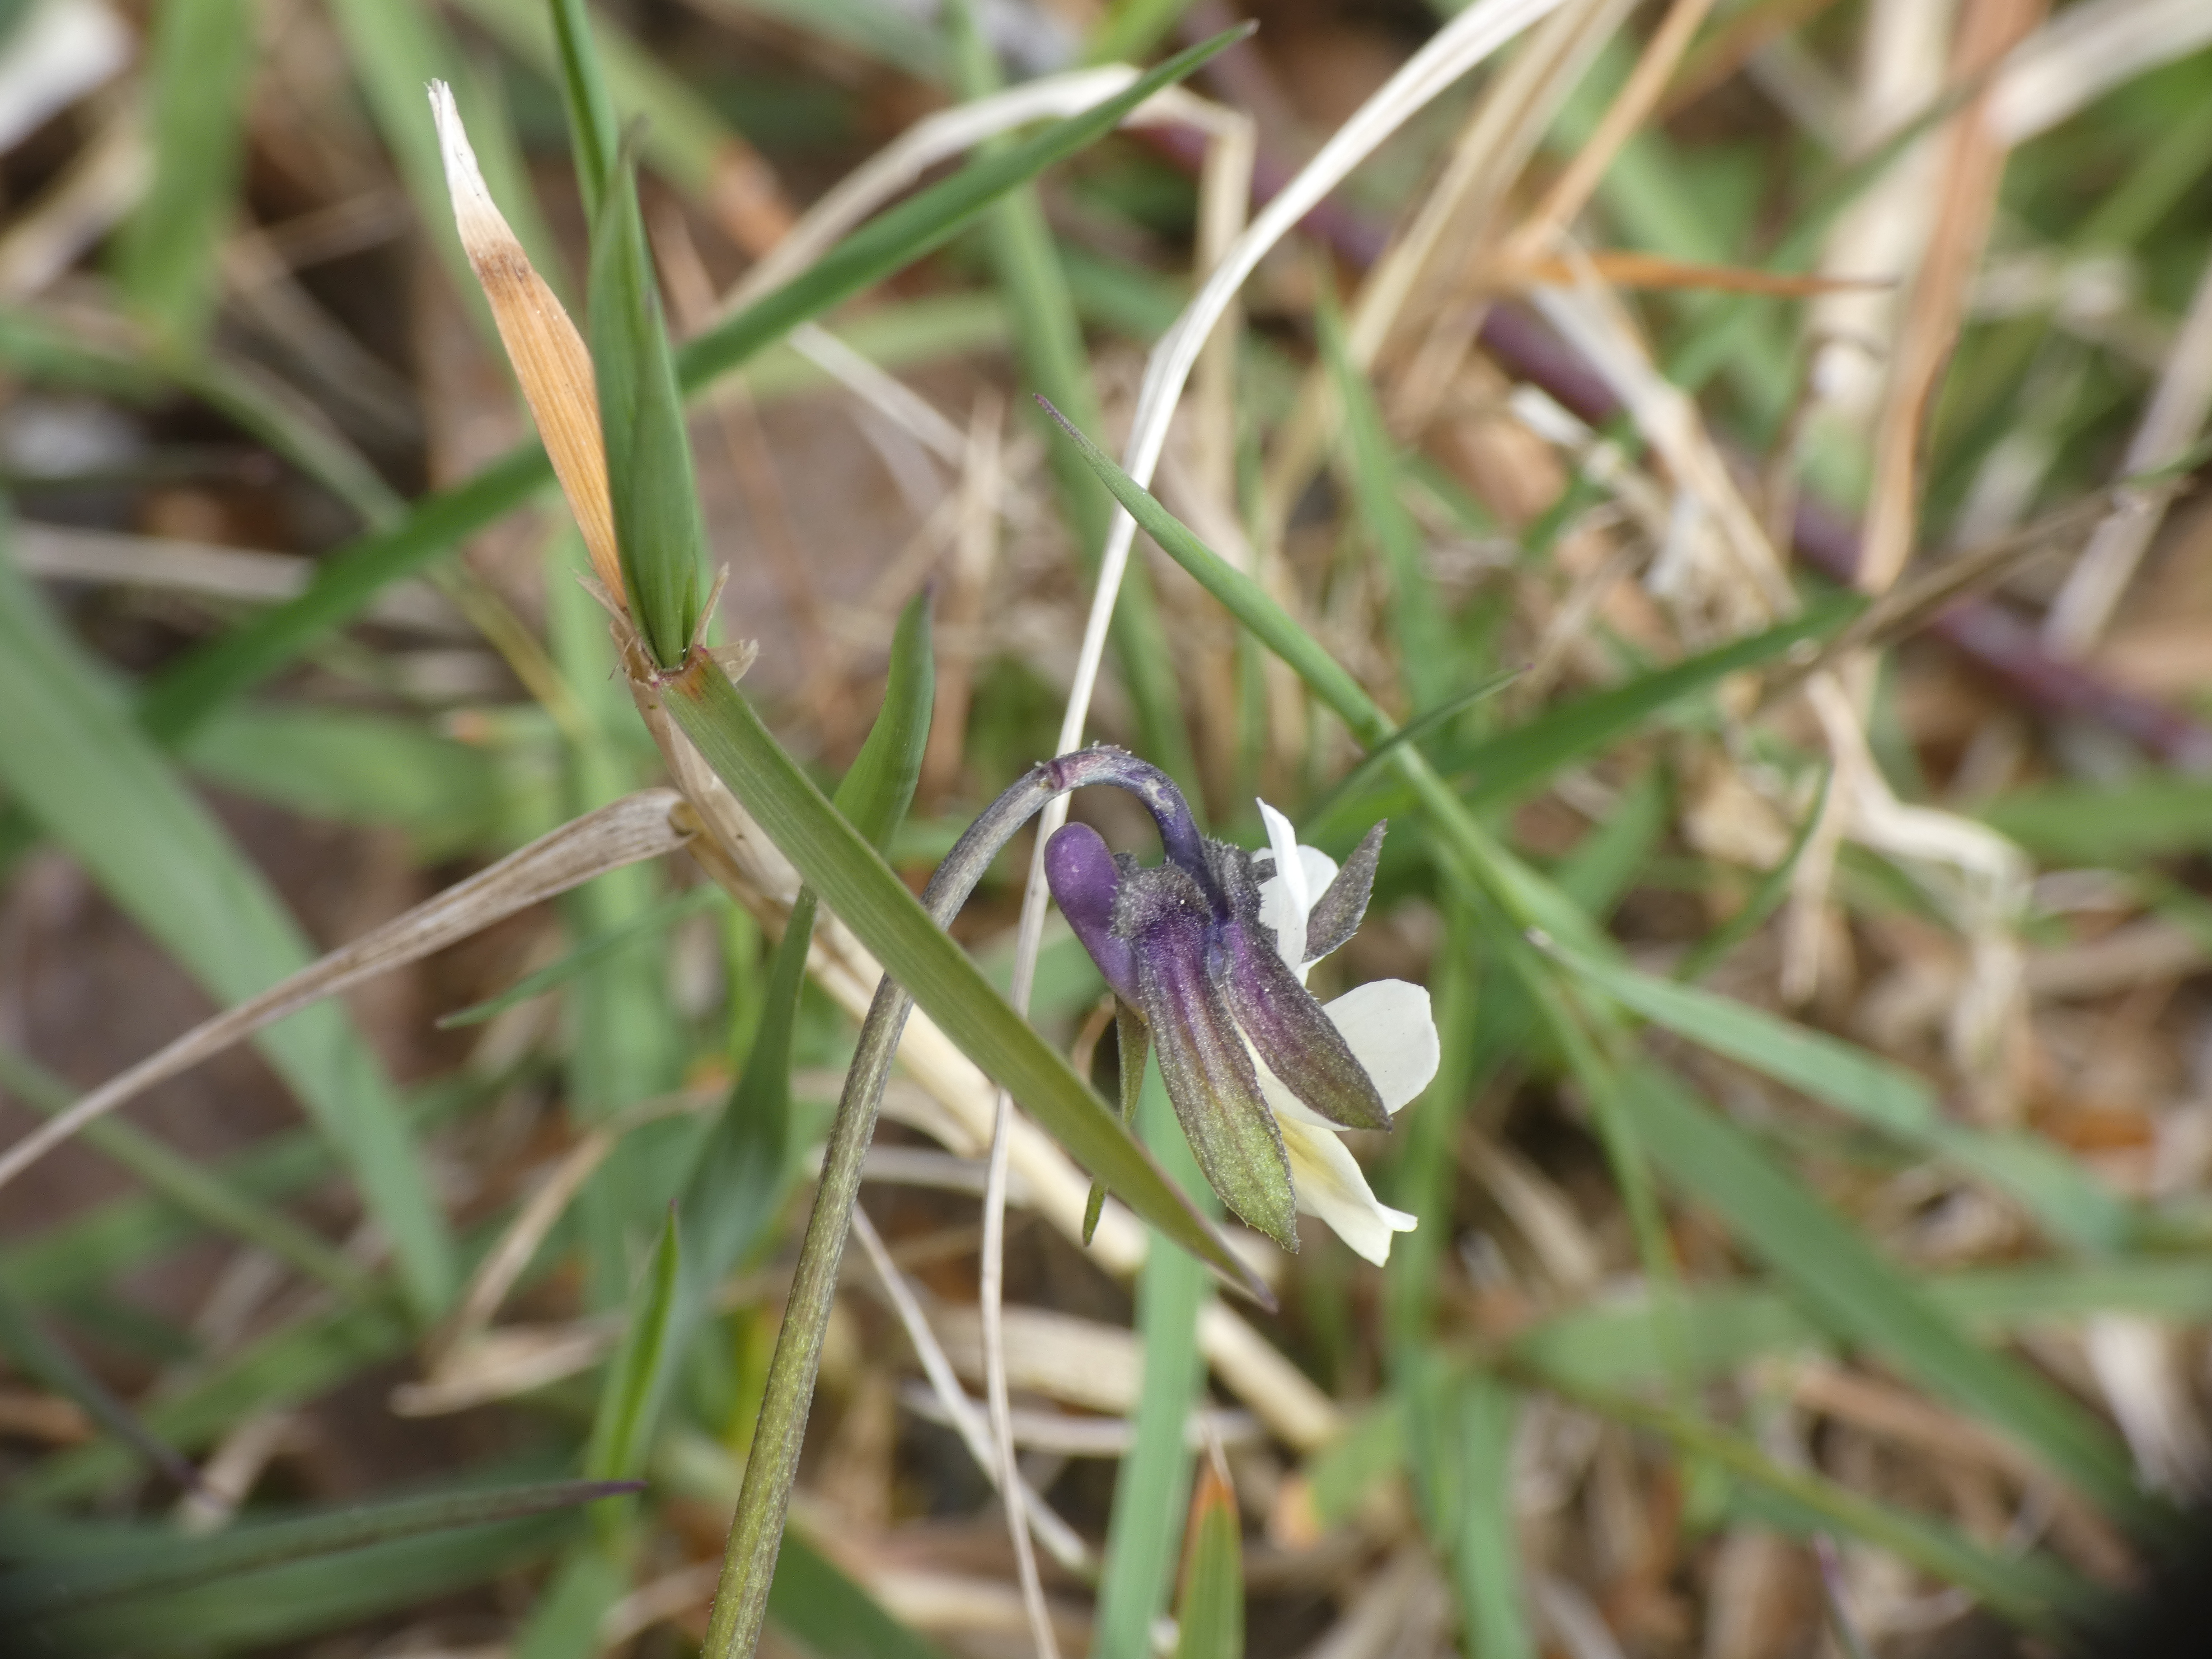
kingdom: Plantae
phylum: Tracheophyta
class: Magnoliopsida
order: Malpighiales
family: Violaceae
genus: Viola
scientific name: Viola arvensis
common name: Ager-stedmoderblomst
